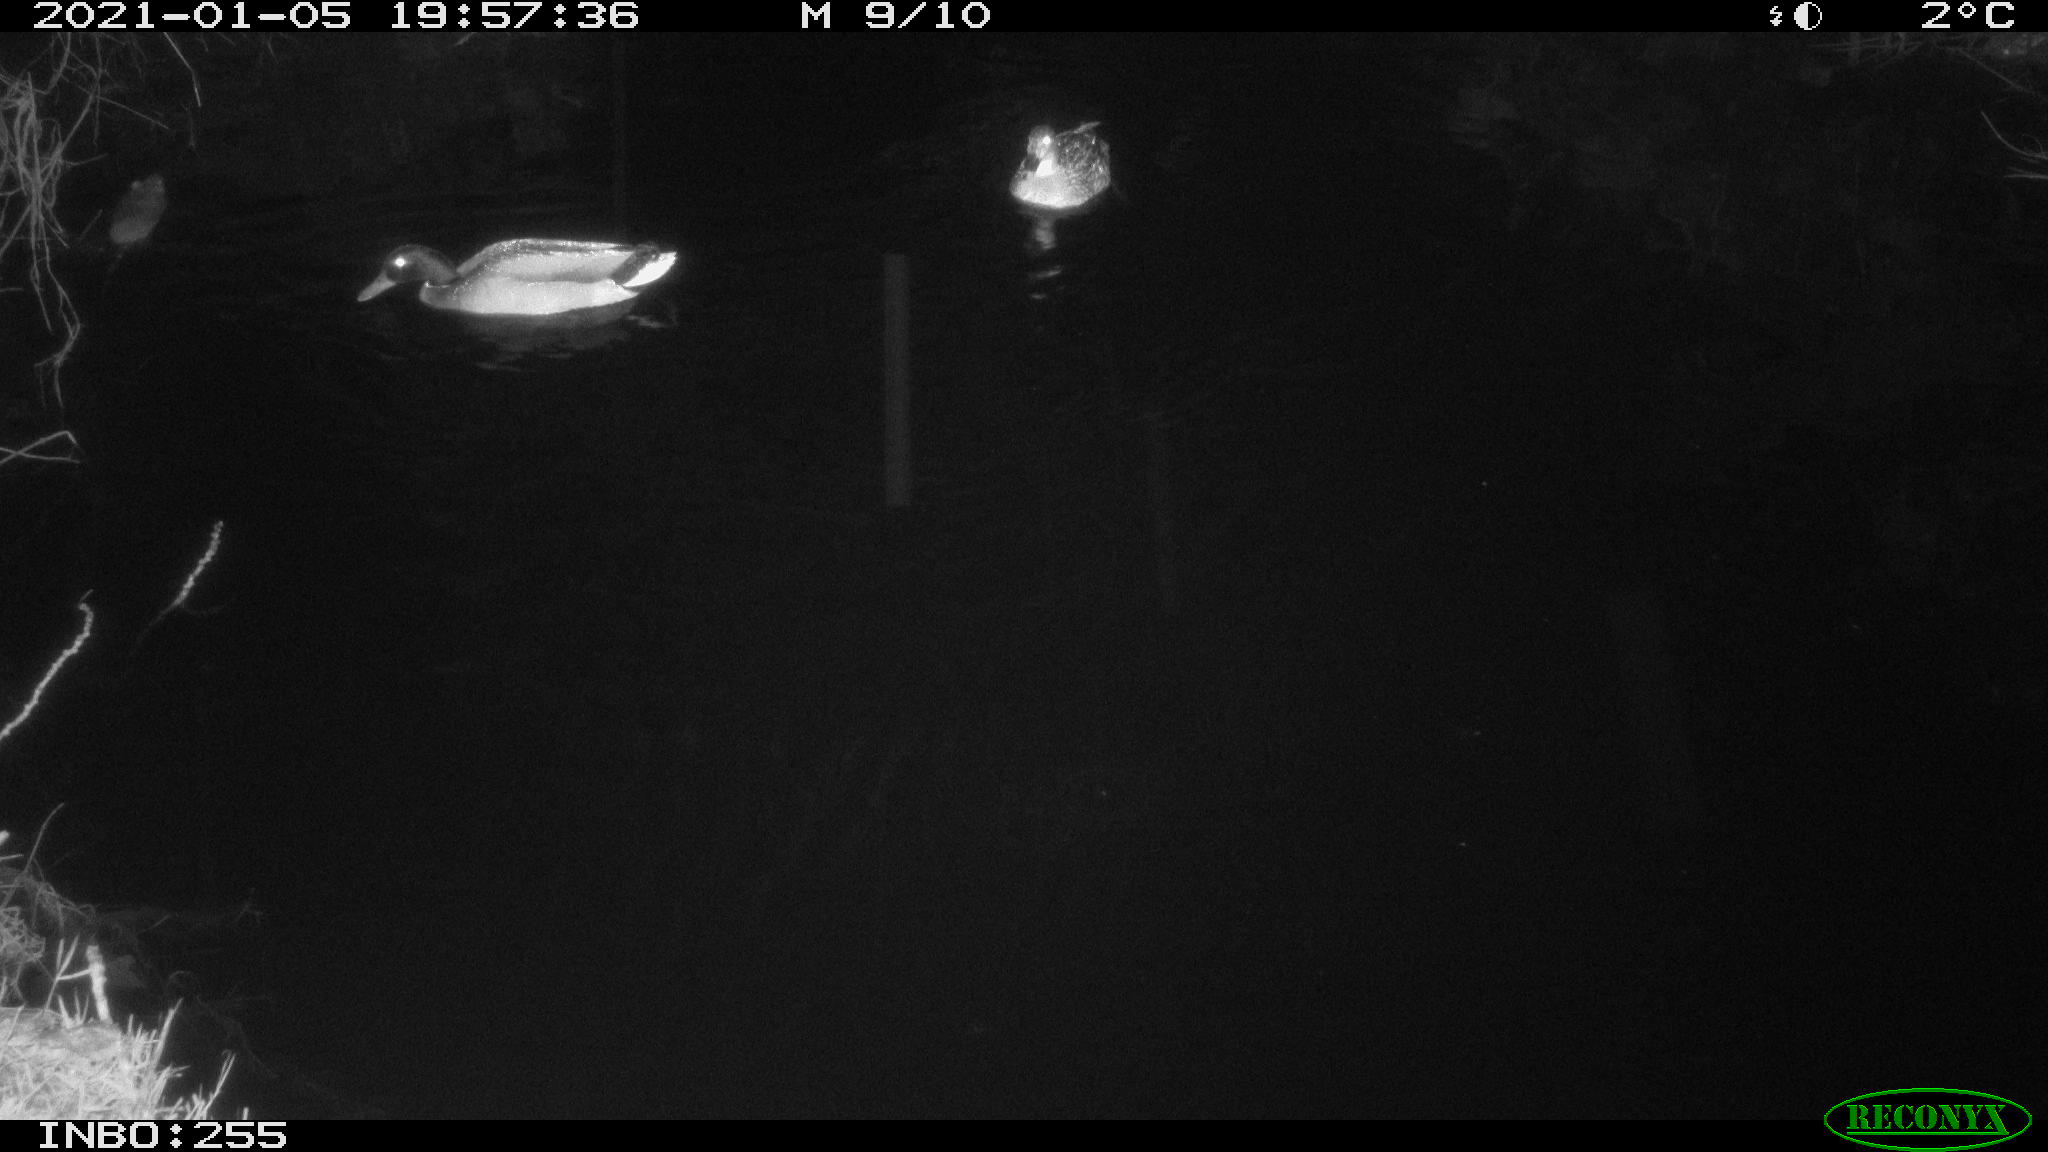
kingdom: Animalia
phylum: Chordata
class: Aves
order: Anseriformes
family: Anatidae
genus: Anas
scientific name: Anas platyrhynchos
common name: Mallard
